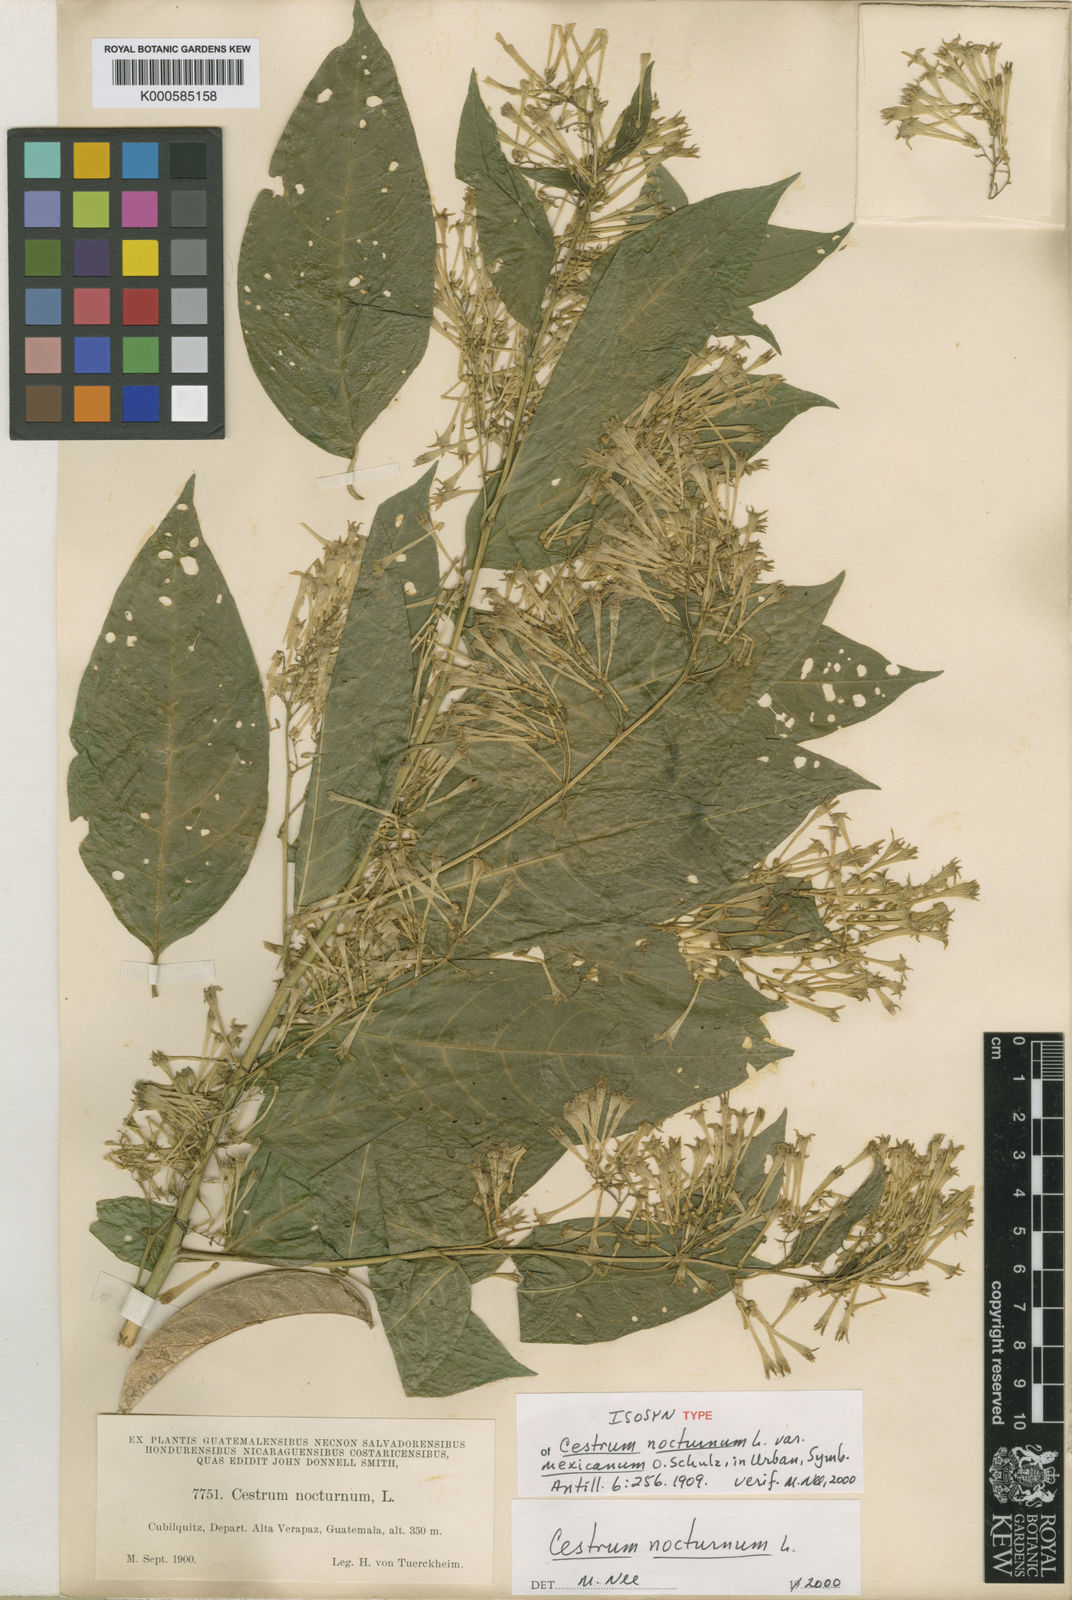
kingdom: Plantae
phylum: Tracheophyta
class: Magnoliopsida
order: Solanales
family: Solanaceae
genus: Cestrum
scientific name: Cestrum nocturnum
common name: Night jessamine
